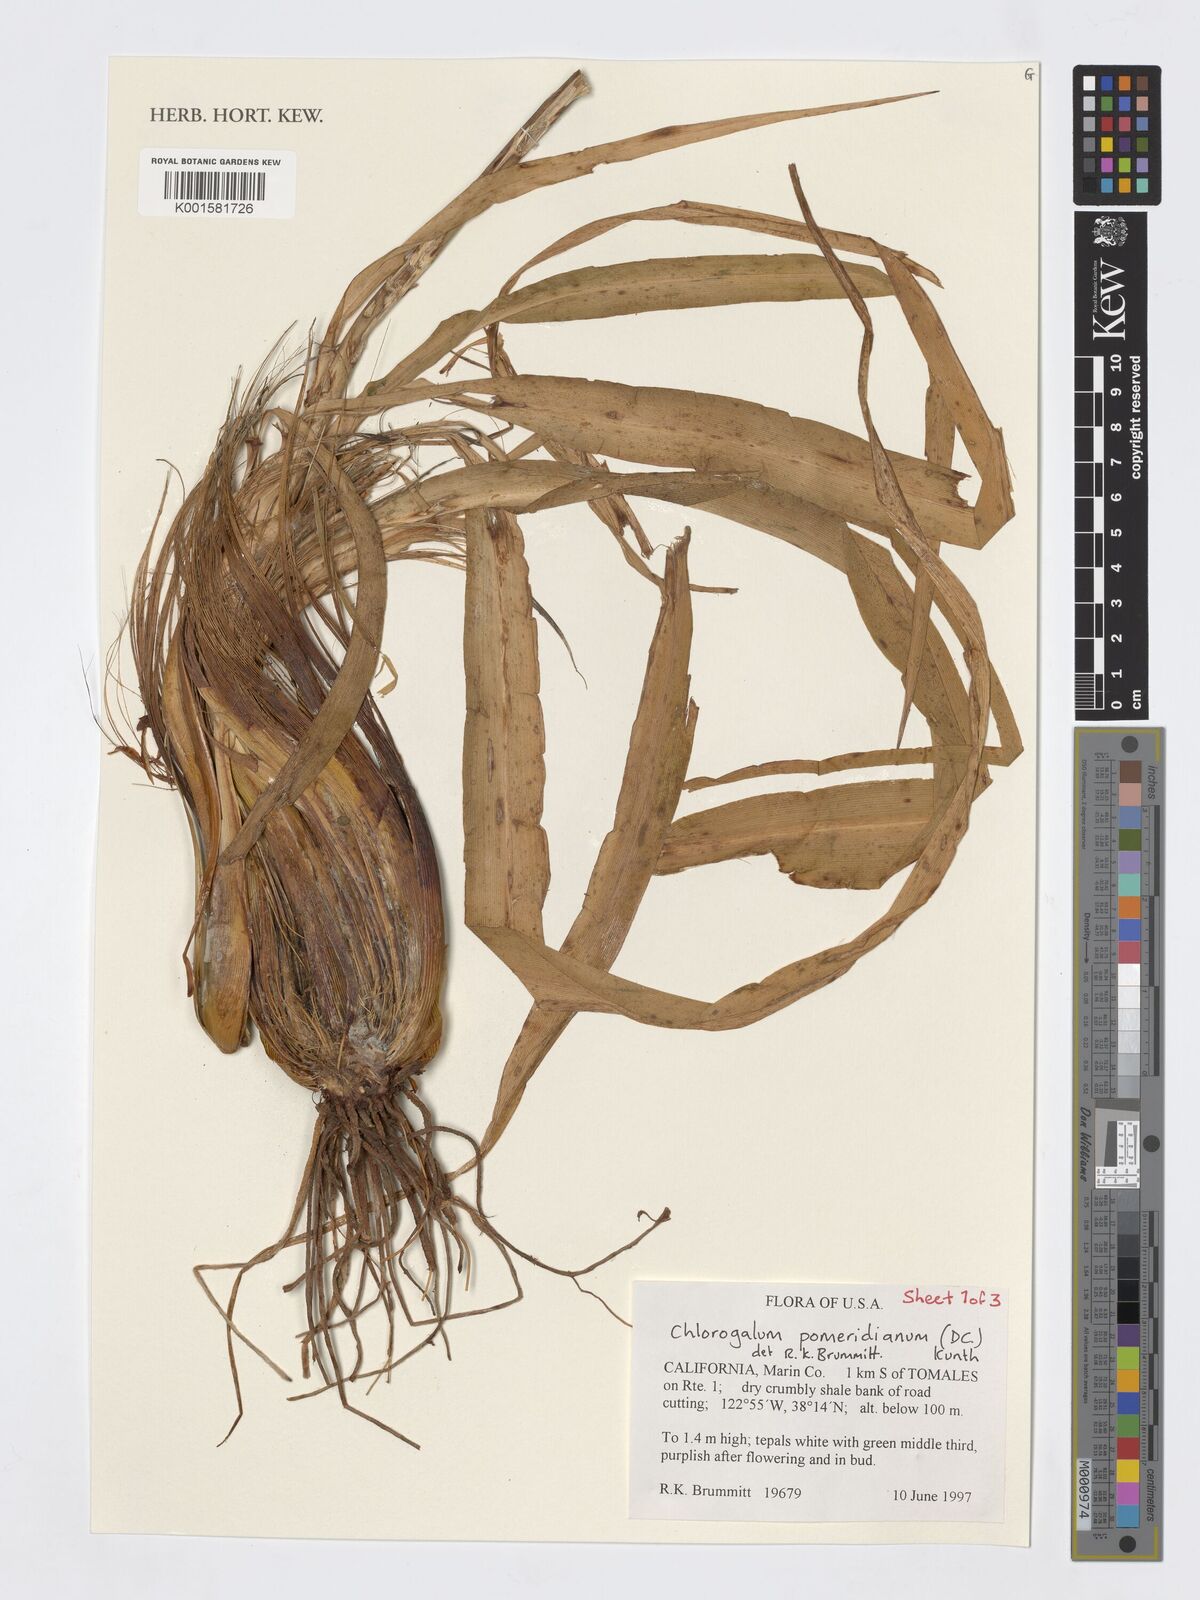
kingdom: Plantae
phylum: Tracheophyta
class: Liliopsida
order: Asparagales
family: Asparagaceae
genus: Chlorogalum
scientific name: Chlorogalum pomeridianum
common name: Amole
